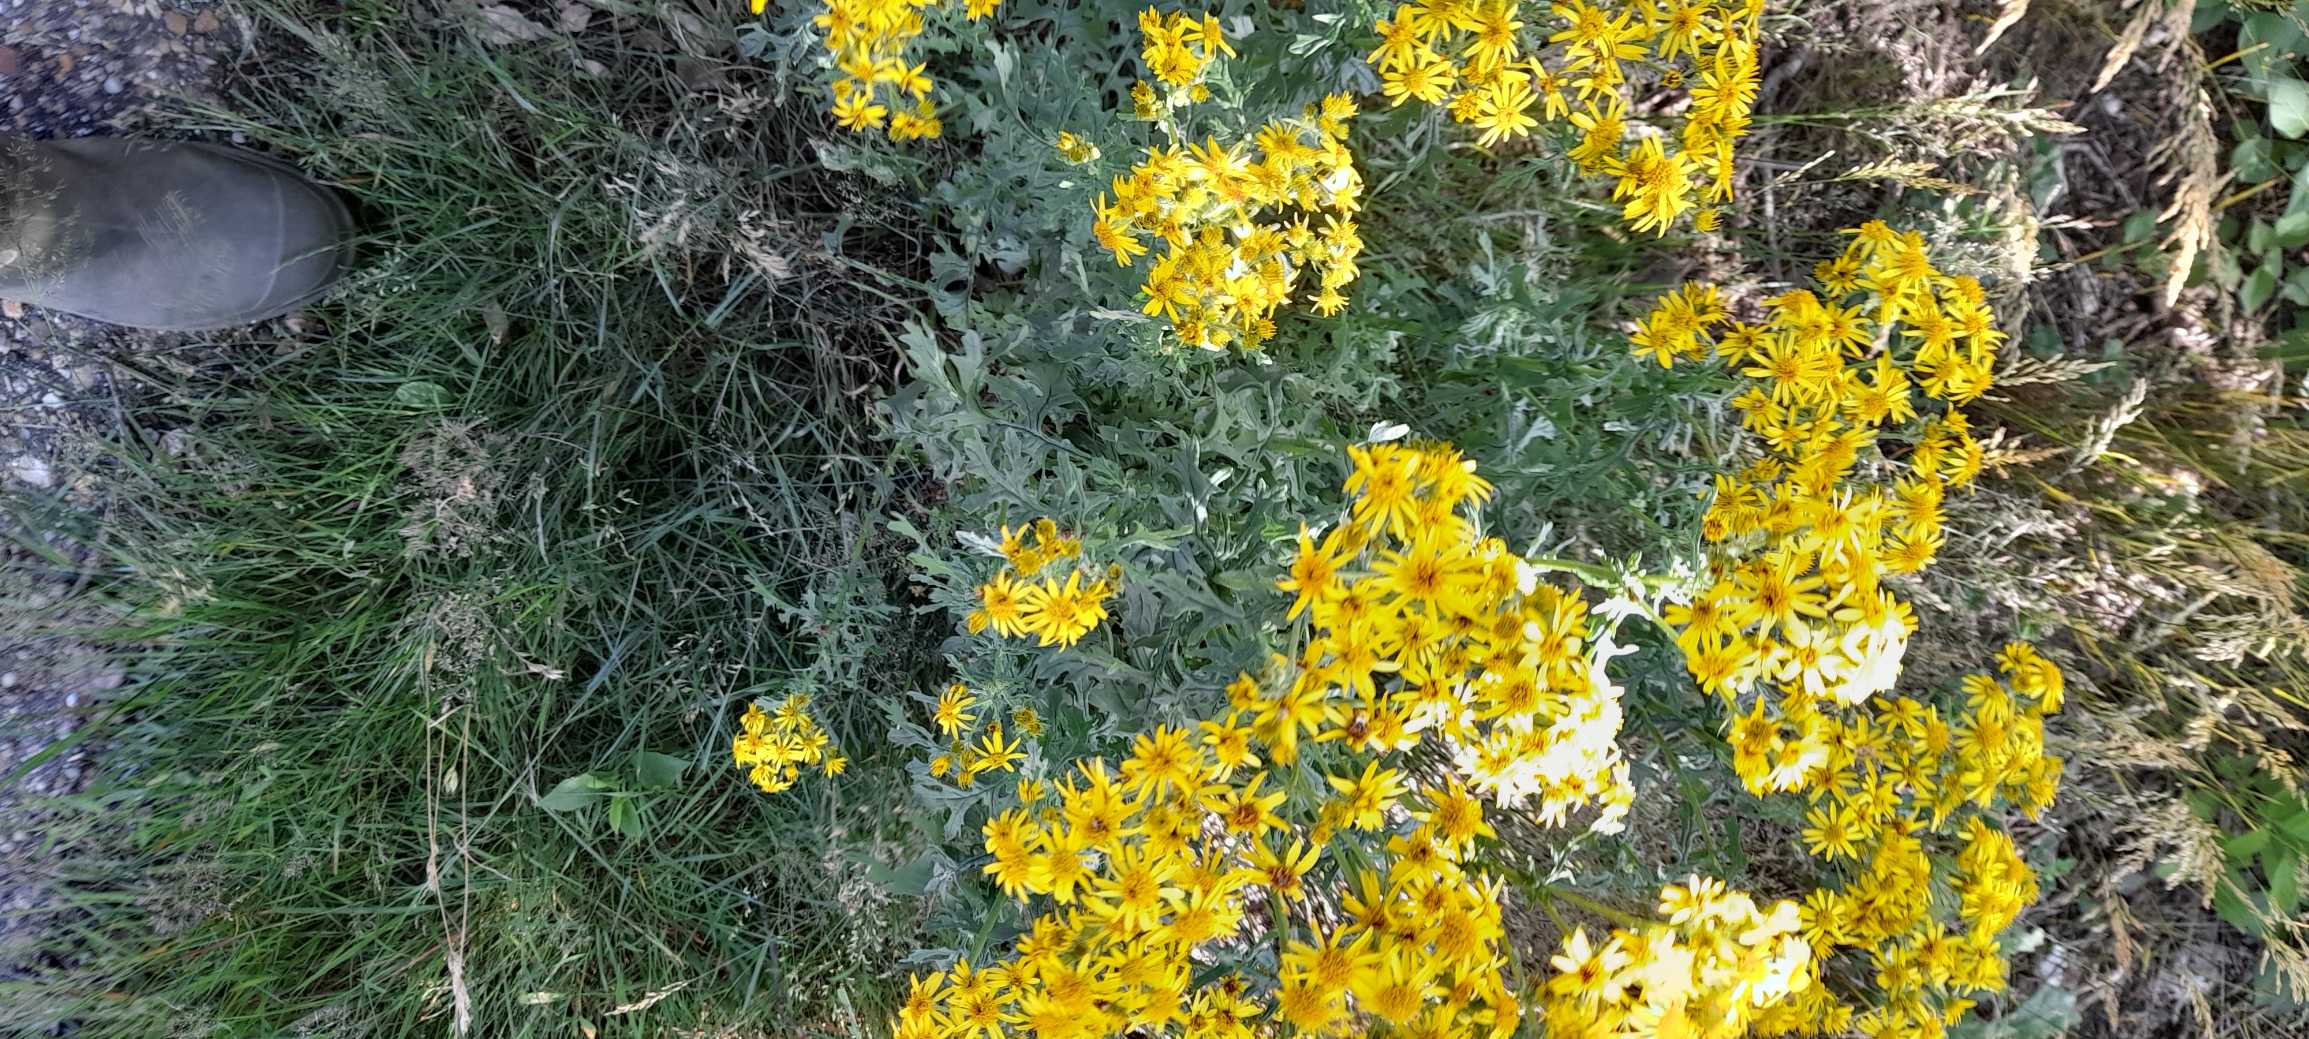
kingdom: Plantae
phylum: Tracheophyta
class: Magnoliopsida
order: Asterales
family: Asteraceae
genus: Jacobaea
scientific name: Jacobaea vulgaris
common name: Eng-brandbæger
